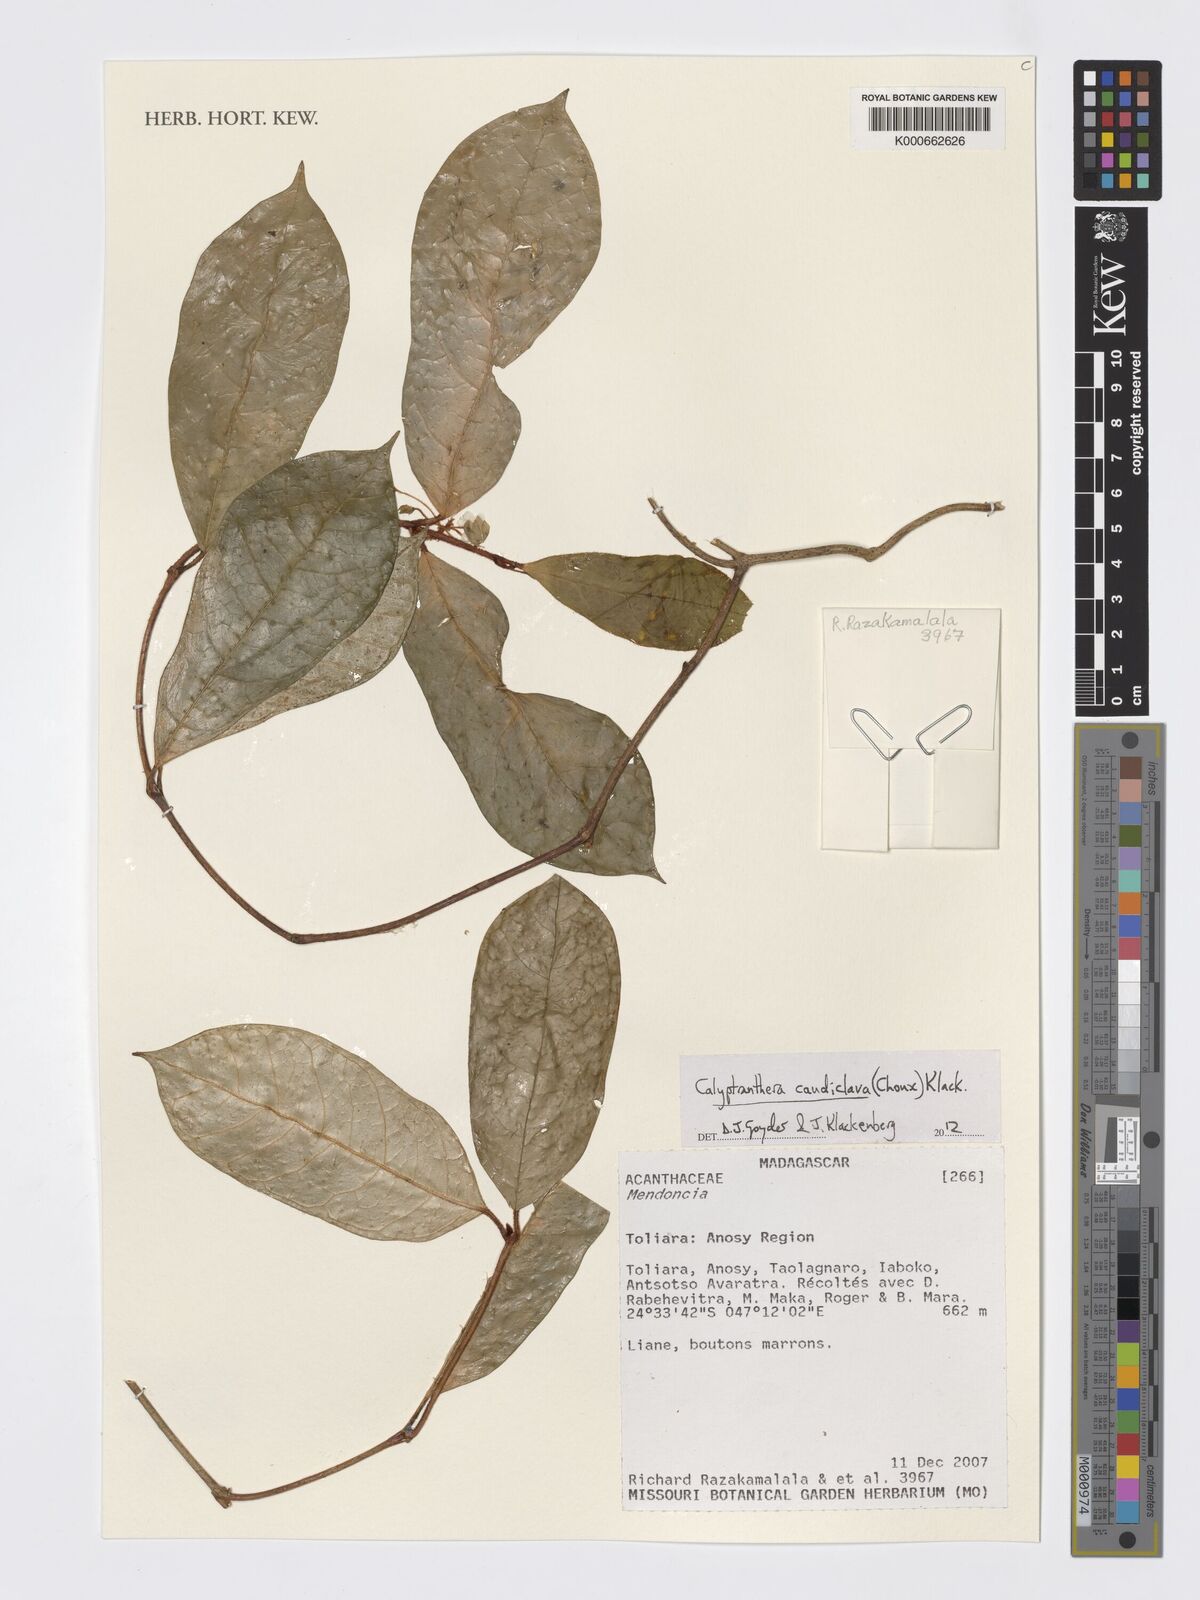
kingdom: Plantae
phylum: Tracheophyta
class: Magnoliopsida
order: Gentianales
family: Apocynaceae
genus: Calyptranthera
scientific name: Calyptranthera caudiclava
